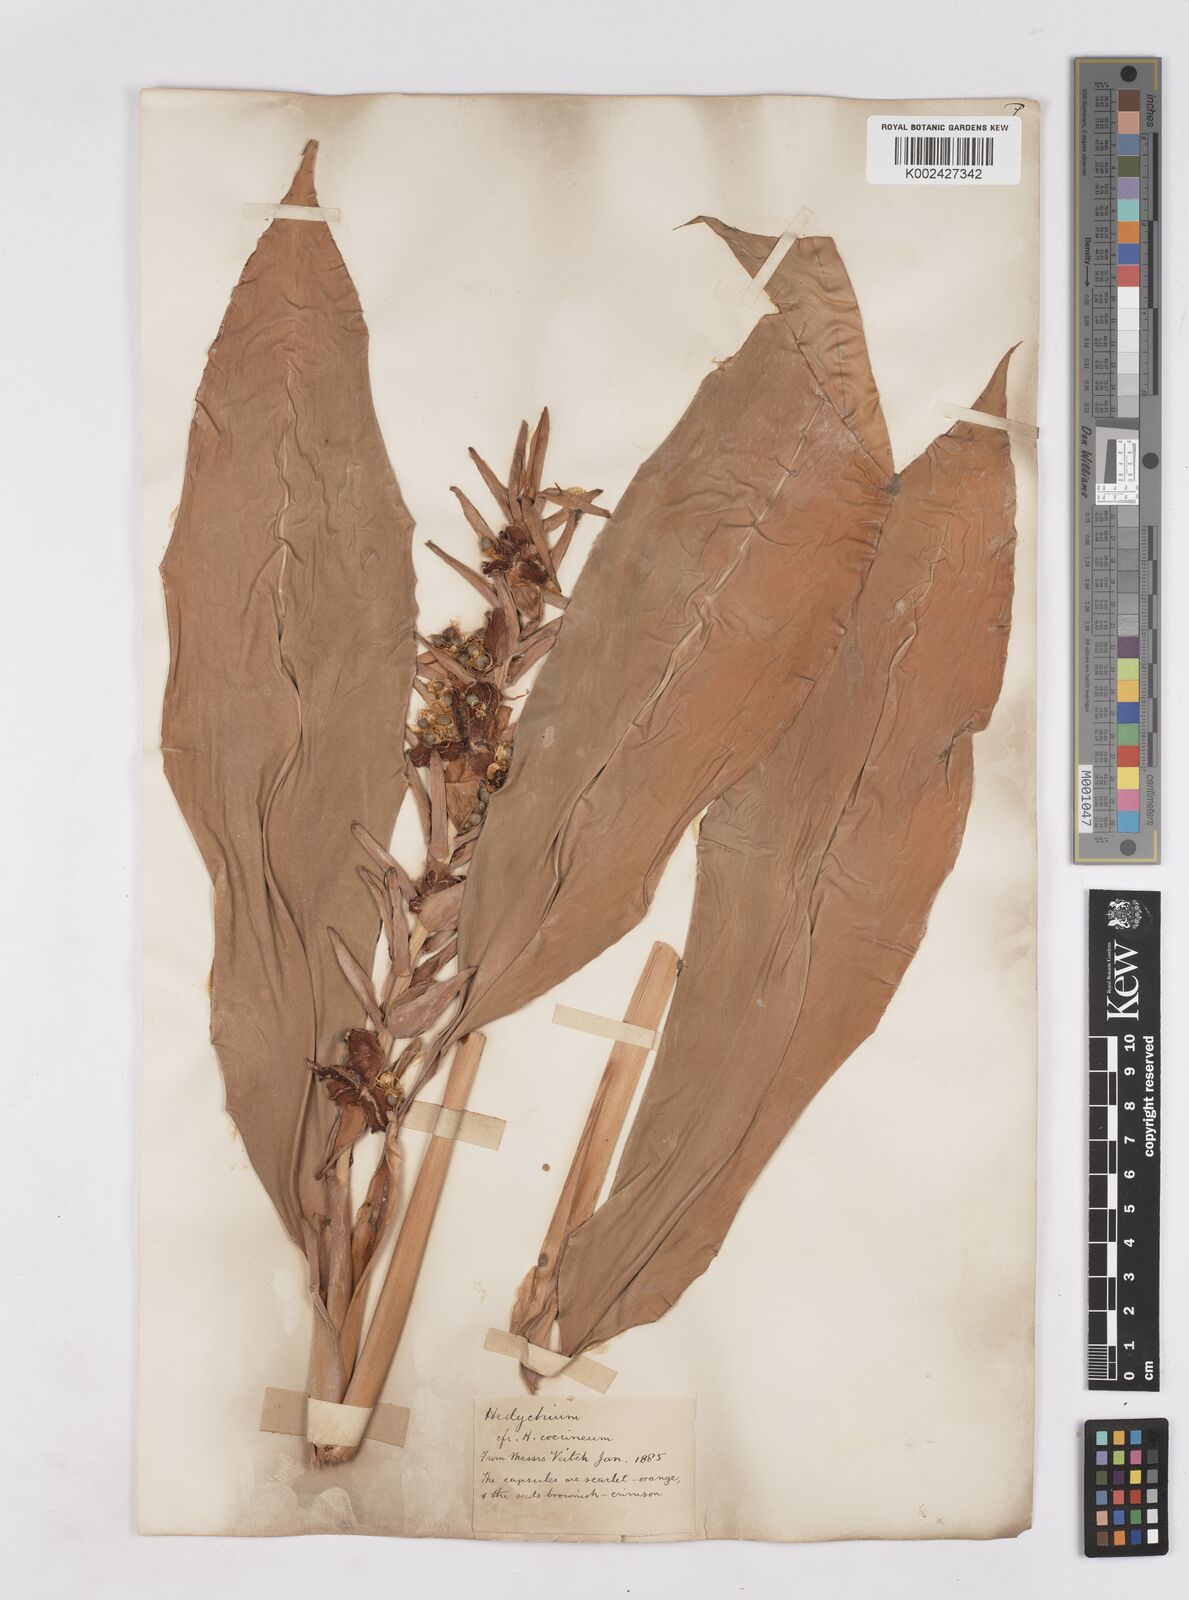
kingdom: Plantae
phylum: Tracheophyta
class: Liliopsida
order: Zingiberales
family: Zingiberaceae
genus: Hedychium
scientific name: Hedychium gardnerianum
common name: Himalayan ginger
